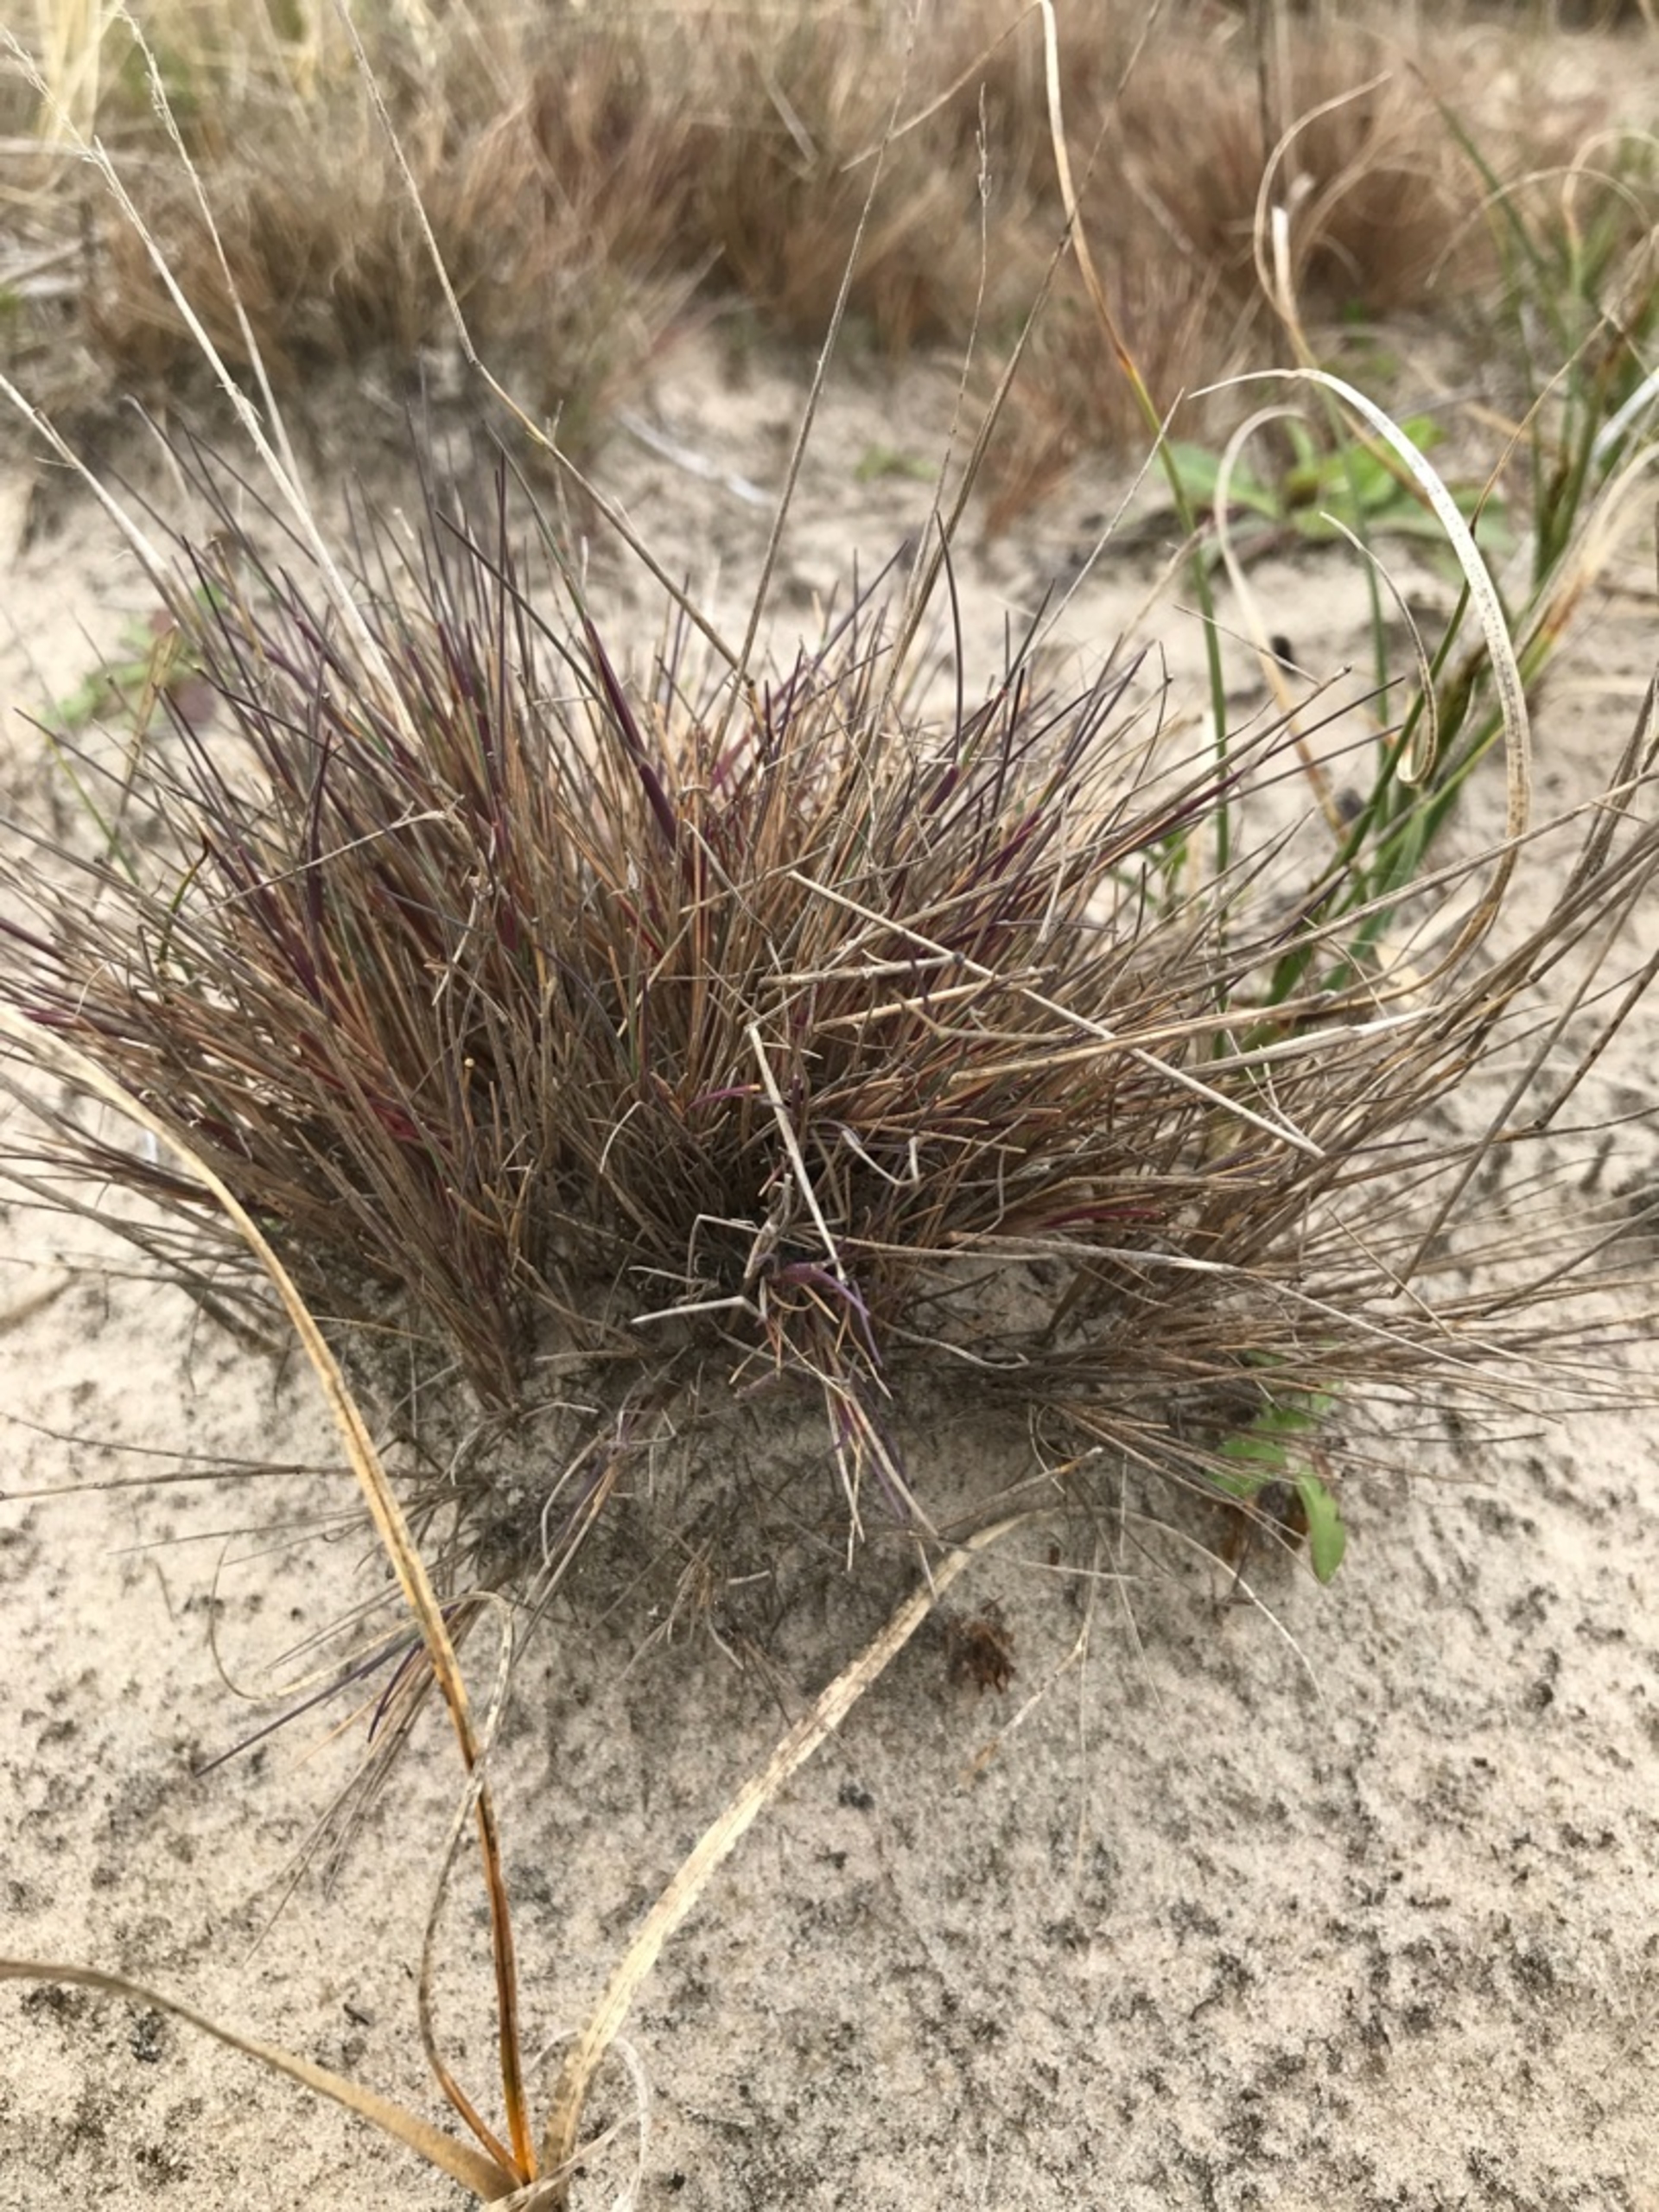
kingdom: Plantae
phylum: Tracheophyta
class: Liliopsida
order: Poales
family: Poaceae
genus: Corynephorus
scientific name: Corynephorus canescens
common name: Sandskæg
